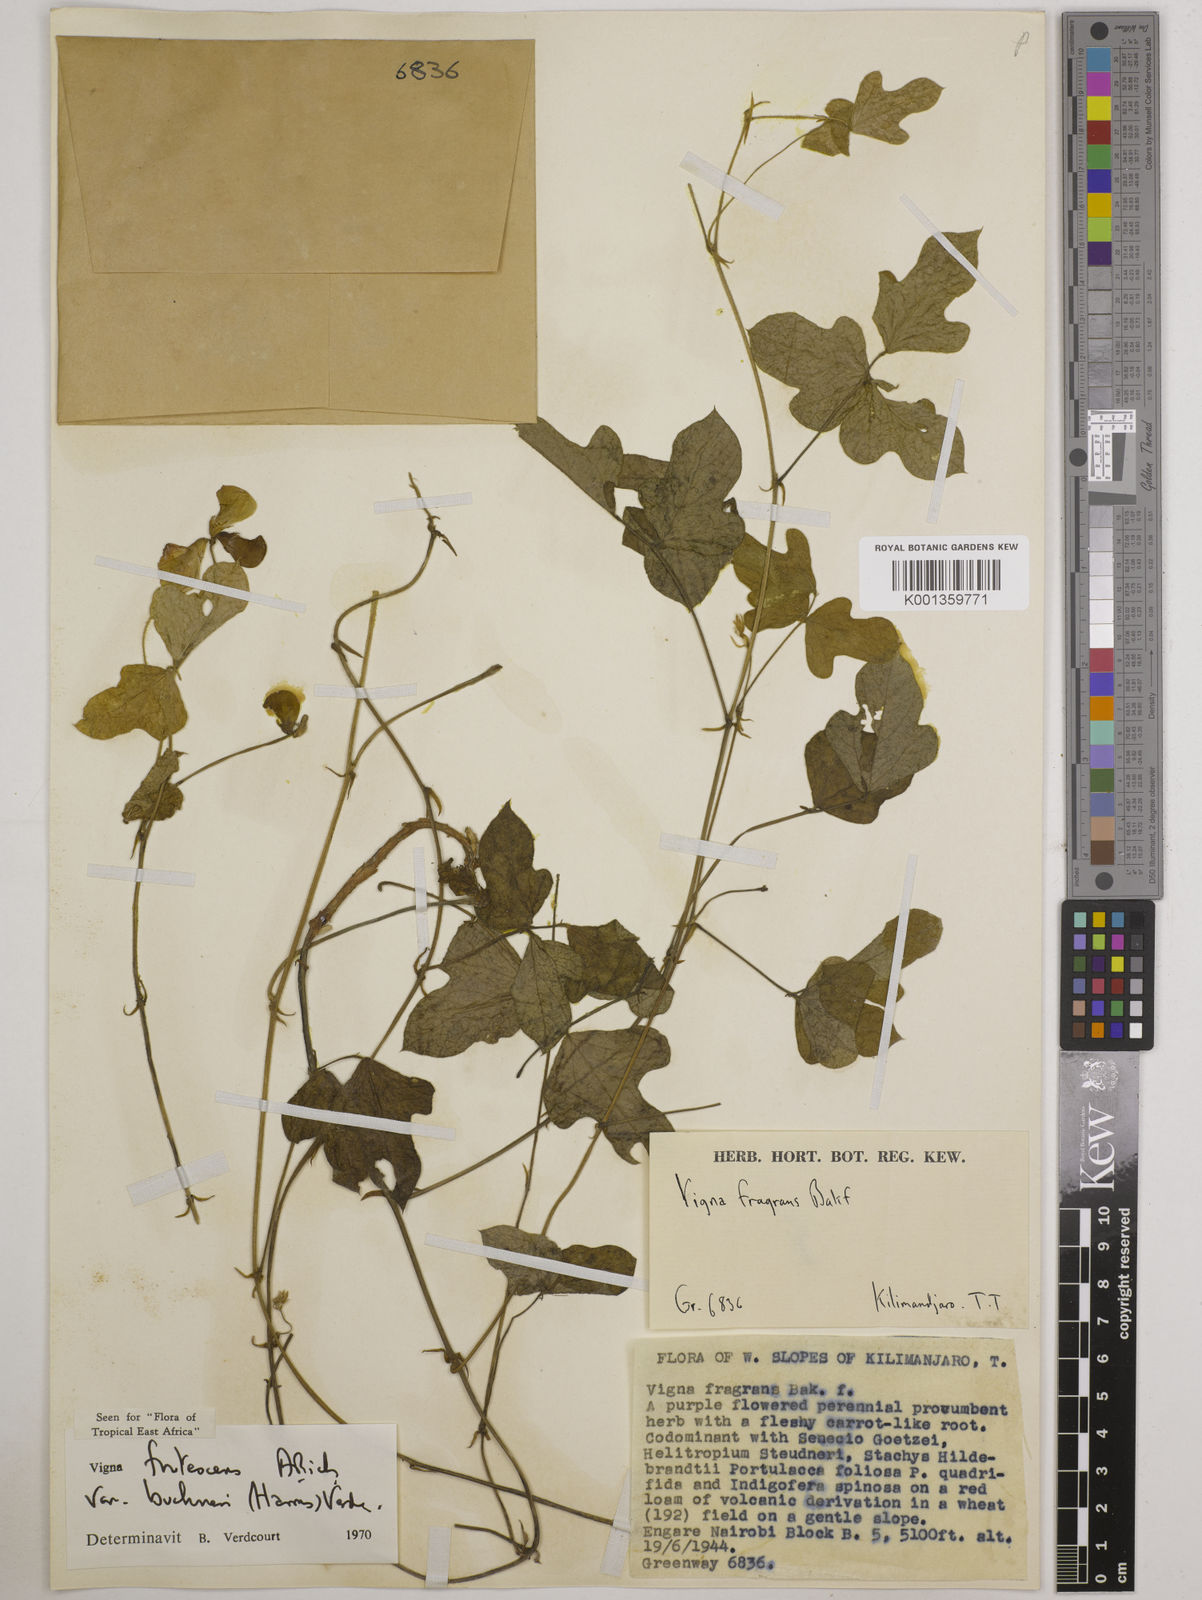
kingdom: Plantae
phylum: Tracheophyta
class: Magnoliopsida
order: Fabales
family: Fabaceae
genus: Vigna
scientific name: Vigna
